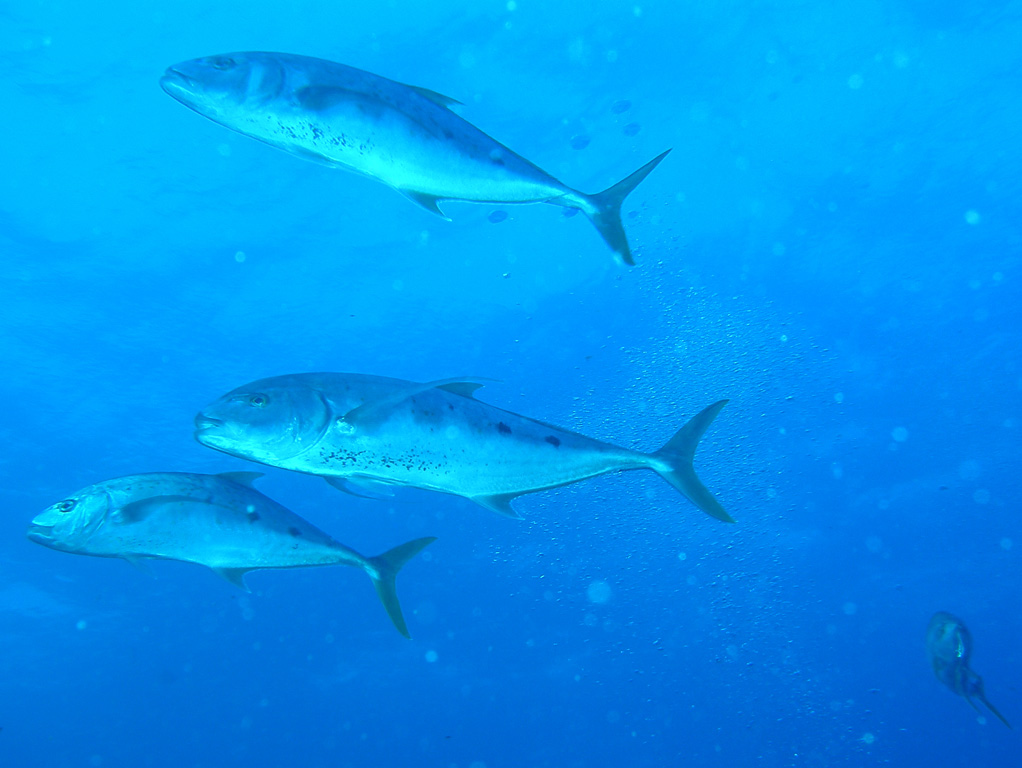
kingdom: Animalia
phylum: Chordata
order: Perciformes
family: Carangidae
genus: Carangoides
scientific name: Carangoides fulvoguttatus
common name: Yellowspotted trevally
